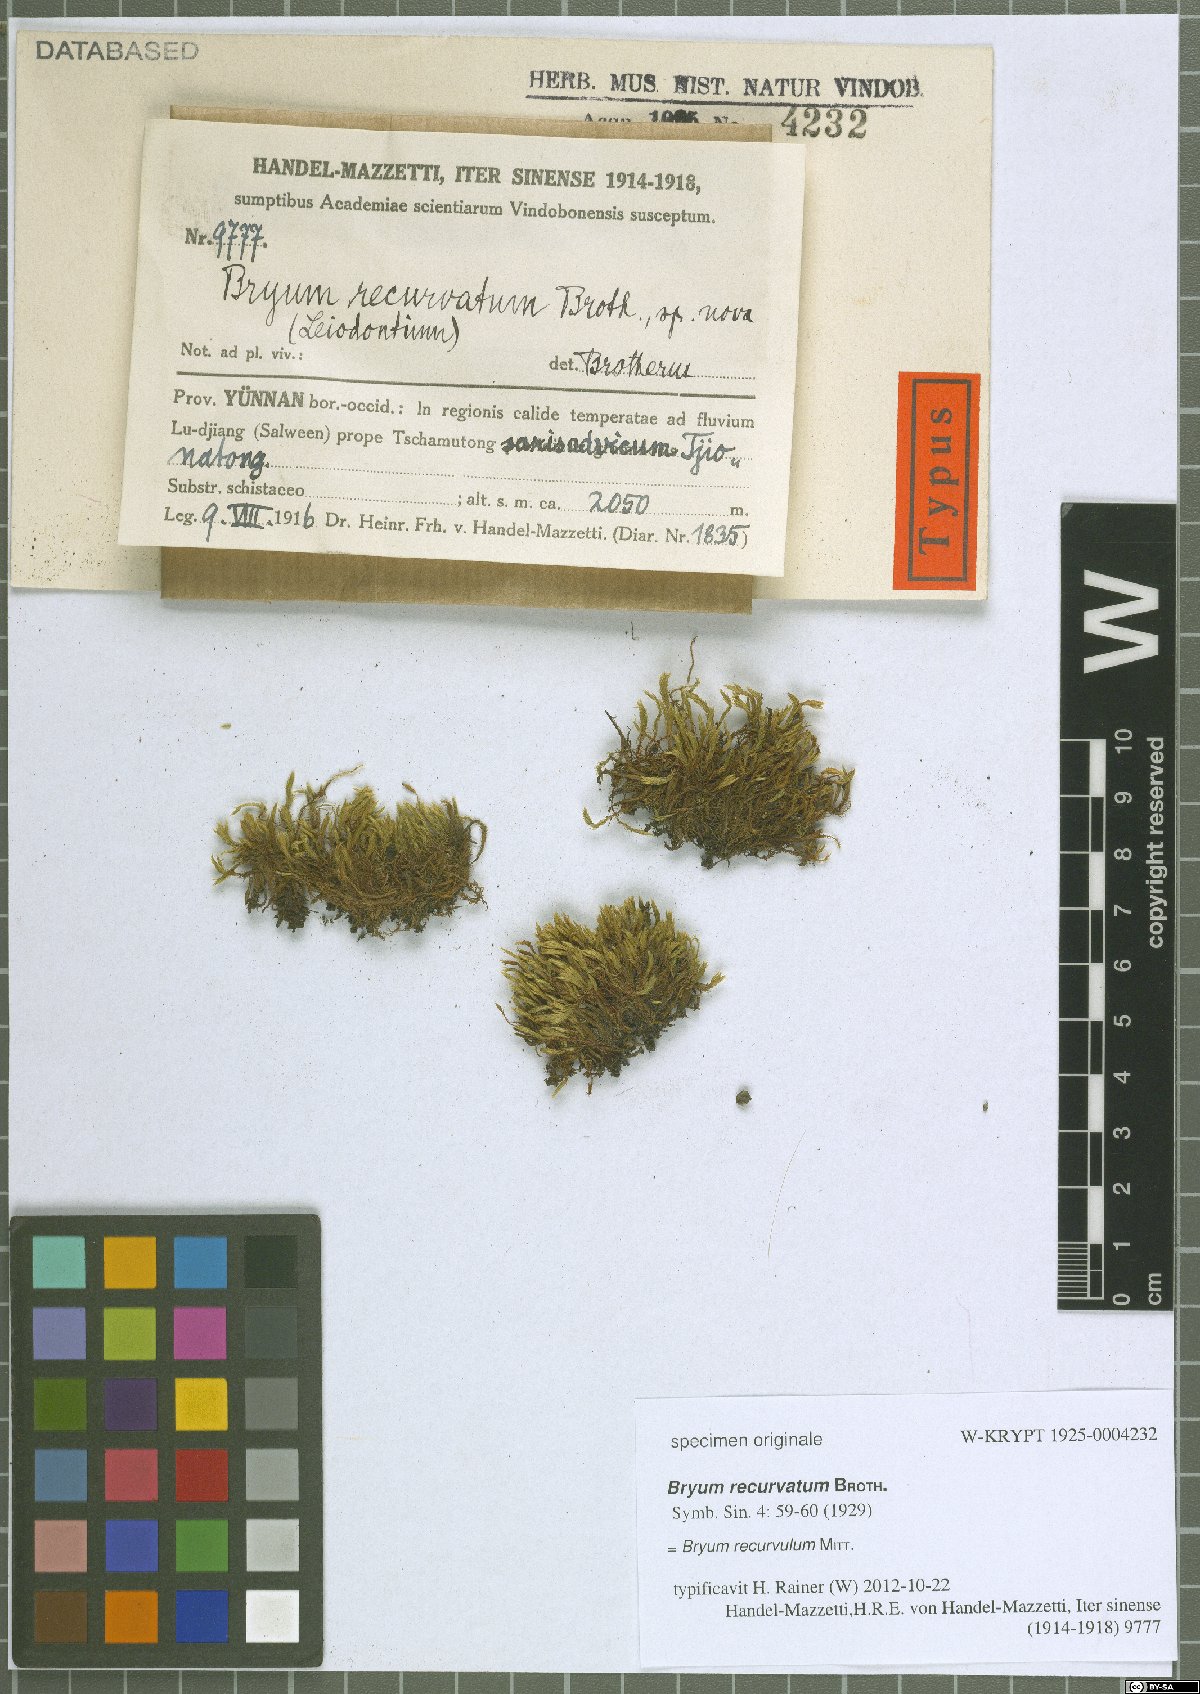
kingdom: Plantae
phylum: Bryophyta
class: Bryopsida
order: Bryales
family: Bryaceae
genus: Bryum
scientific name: Bryum recurvulum
